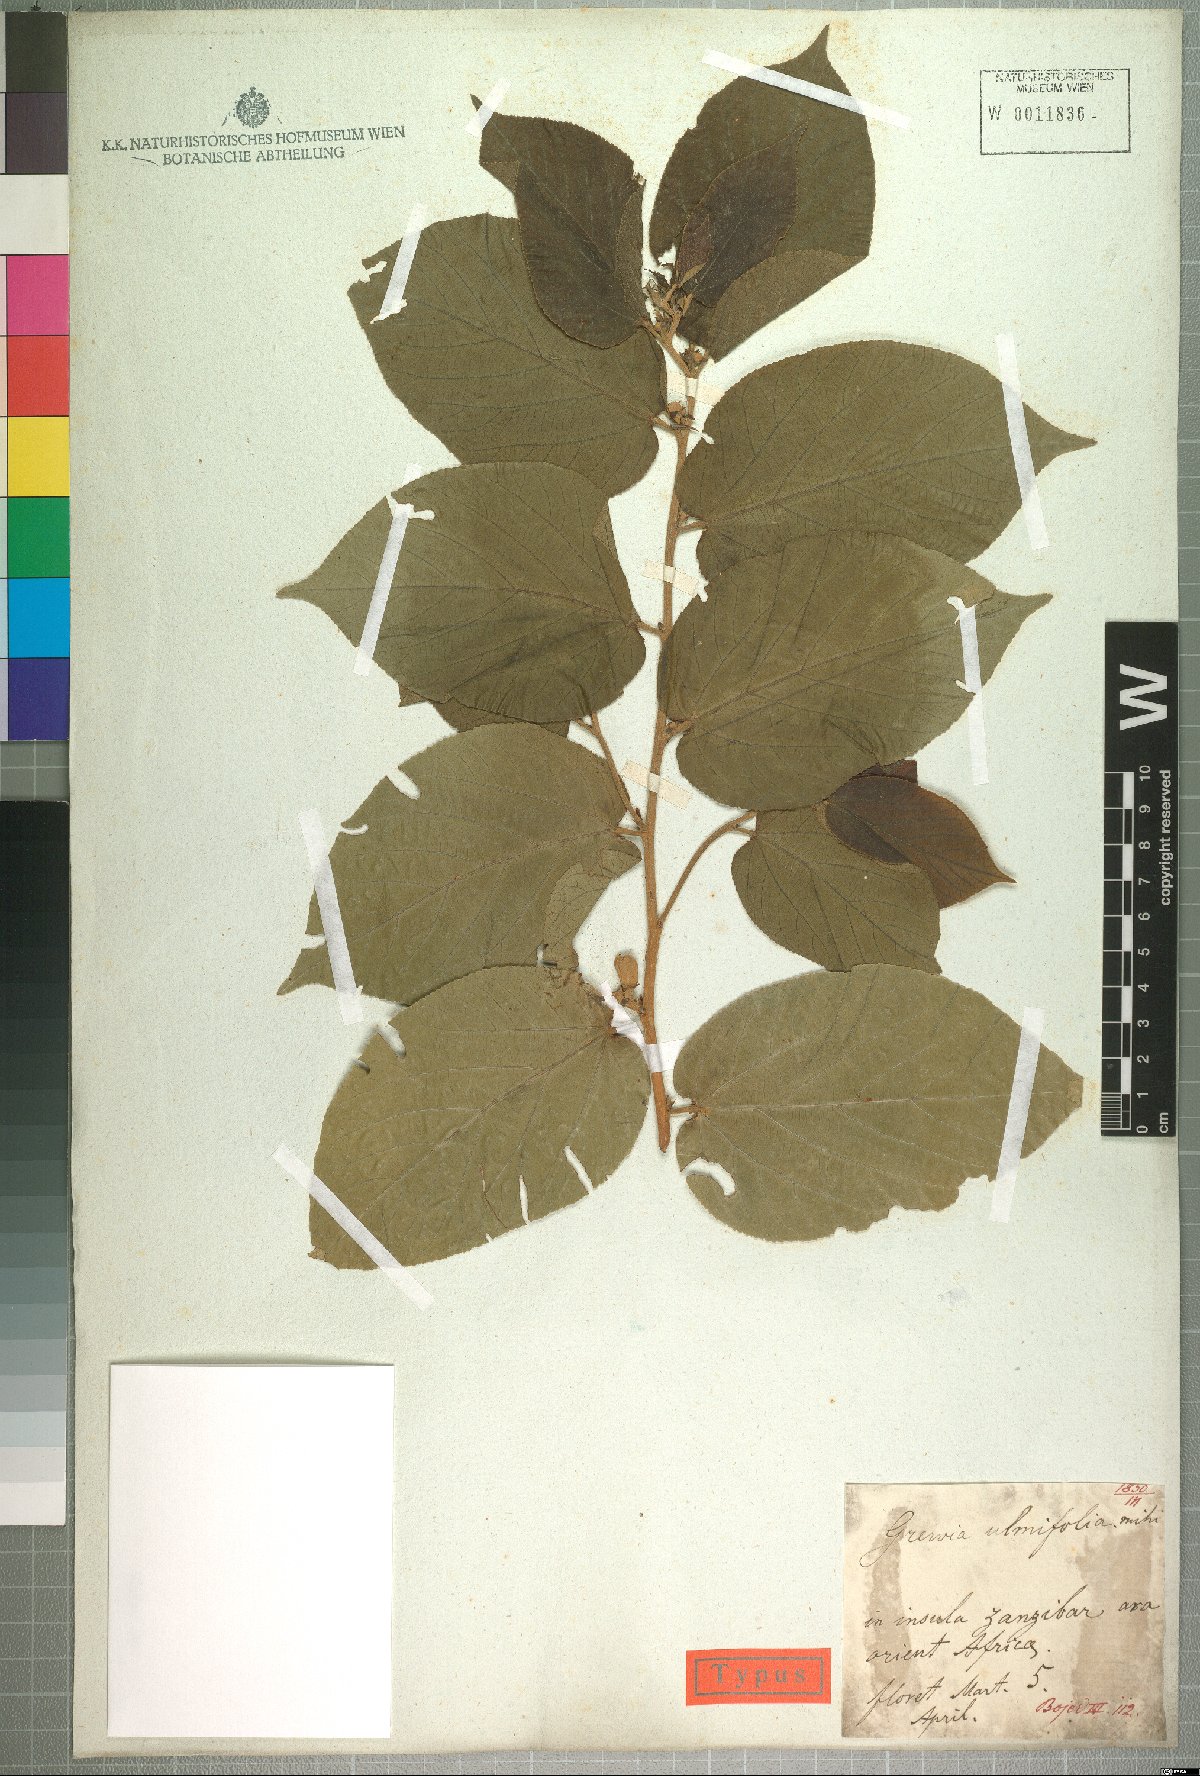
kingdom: Plantae
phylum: Tracheophyta
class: Magnoliopsida
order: Malvales
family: Malvaceae
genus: Grewia
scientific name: Grewia glandulosa
